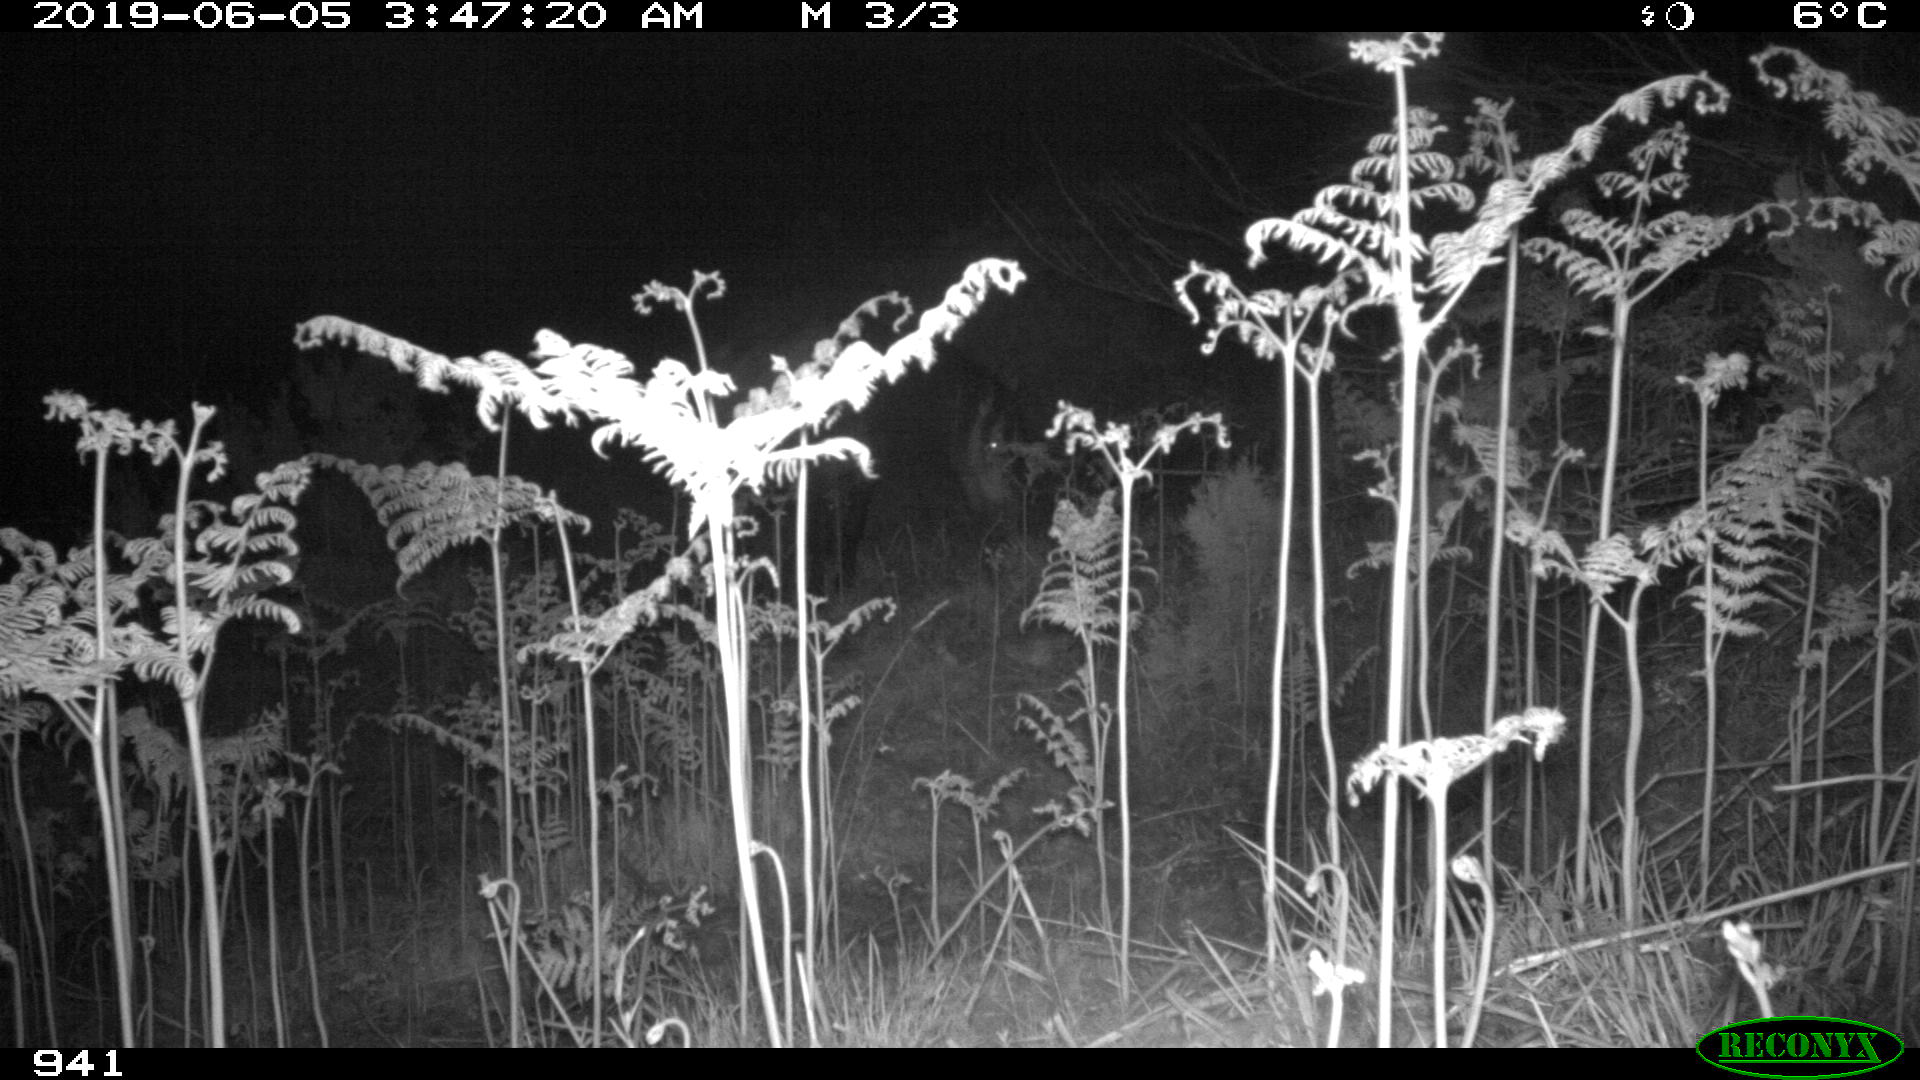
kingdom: Animalia
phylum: Chordata
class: Mammalia
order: Perissodactyla
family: Equidae
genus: Equus
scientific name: Equus caballus
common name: Horse
